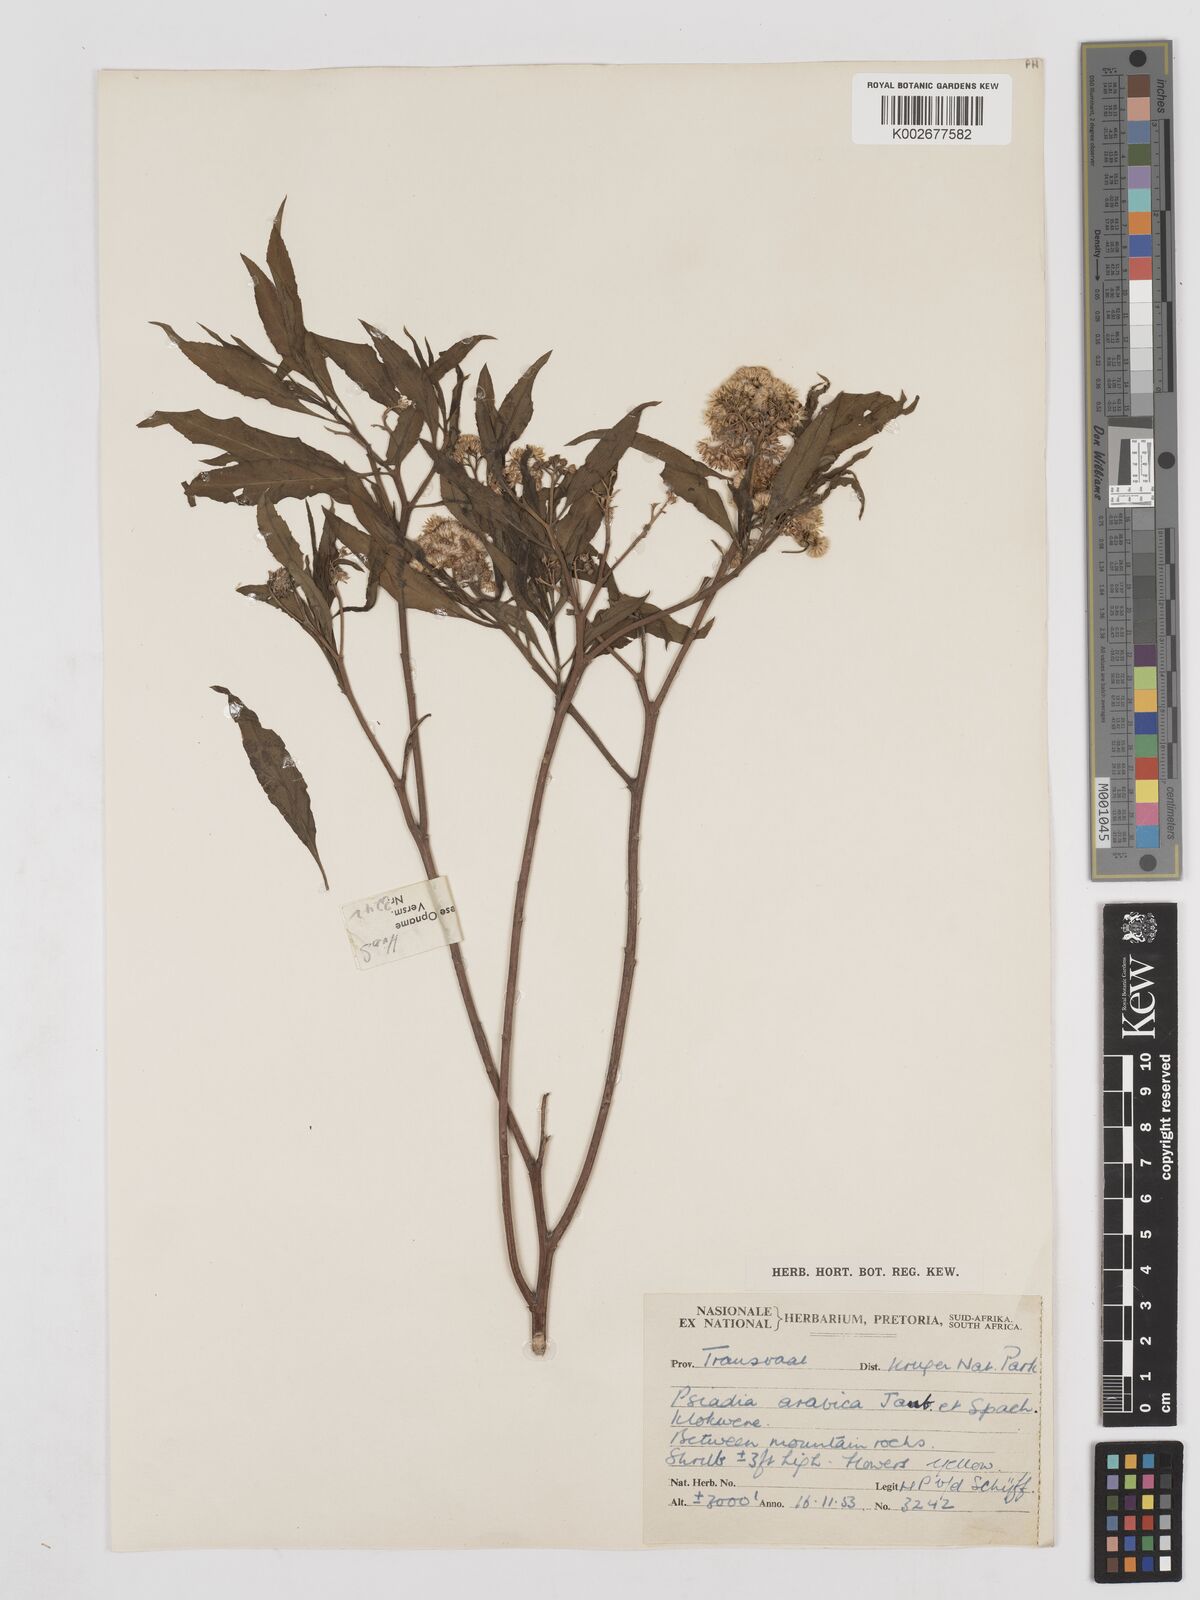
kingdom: Plantae
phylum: Tracheophyta
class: Magnoliopsida
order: Asterales
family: Asteraceae
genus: Psiadia
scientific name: Psiadia punctulata
